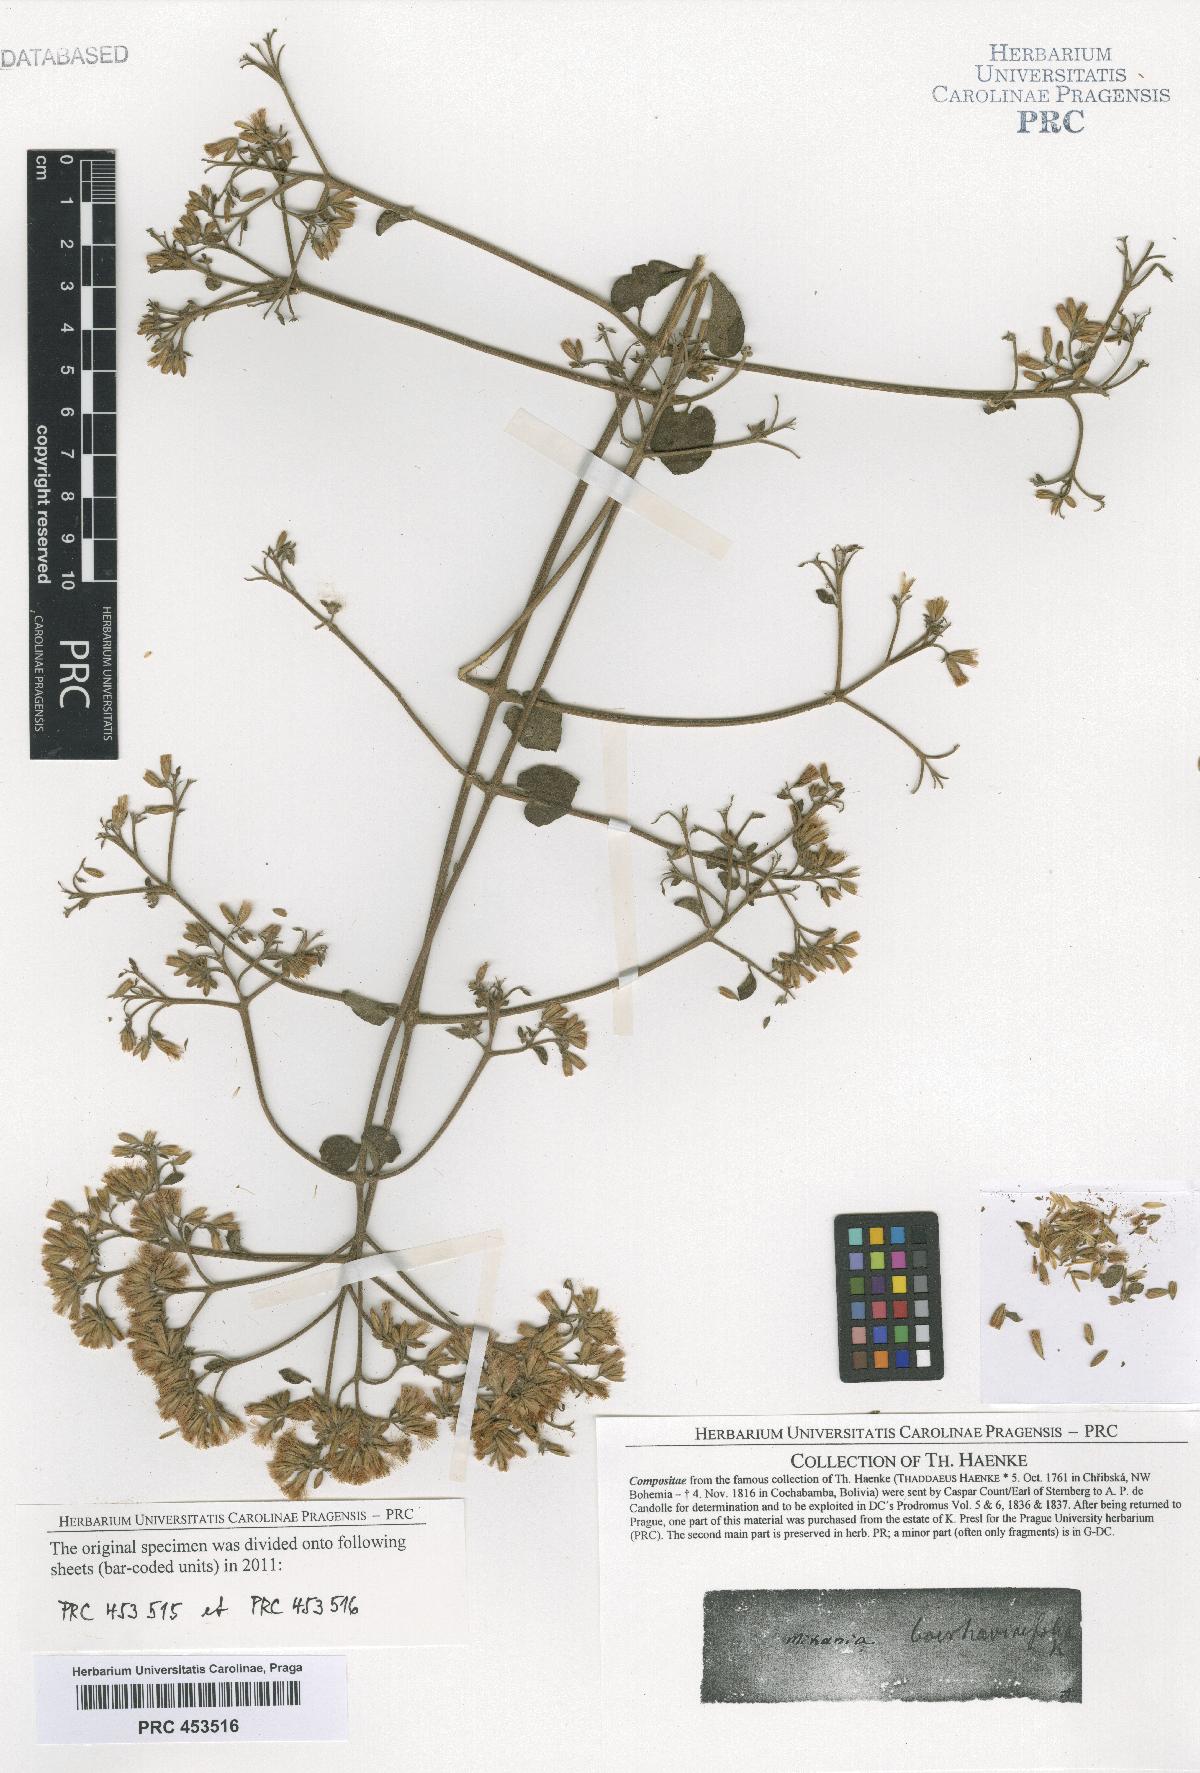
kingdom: Plantae
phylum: Tracheophyta
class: Magnoliopsida
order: Asterales
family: Asteraceae
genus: Mikania
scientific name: Mikania
